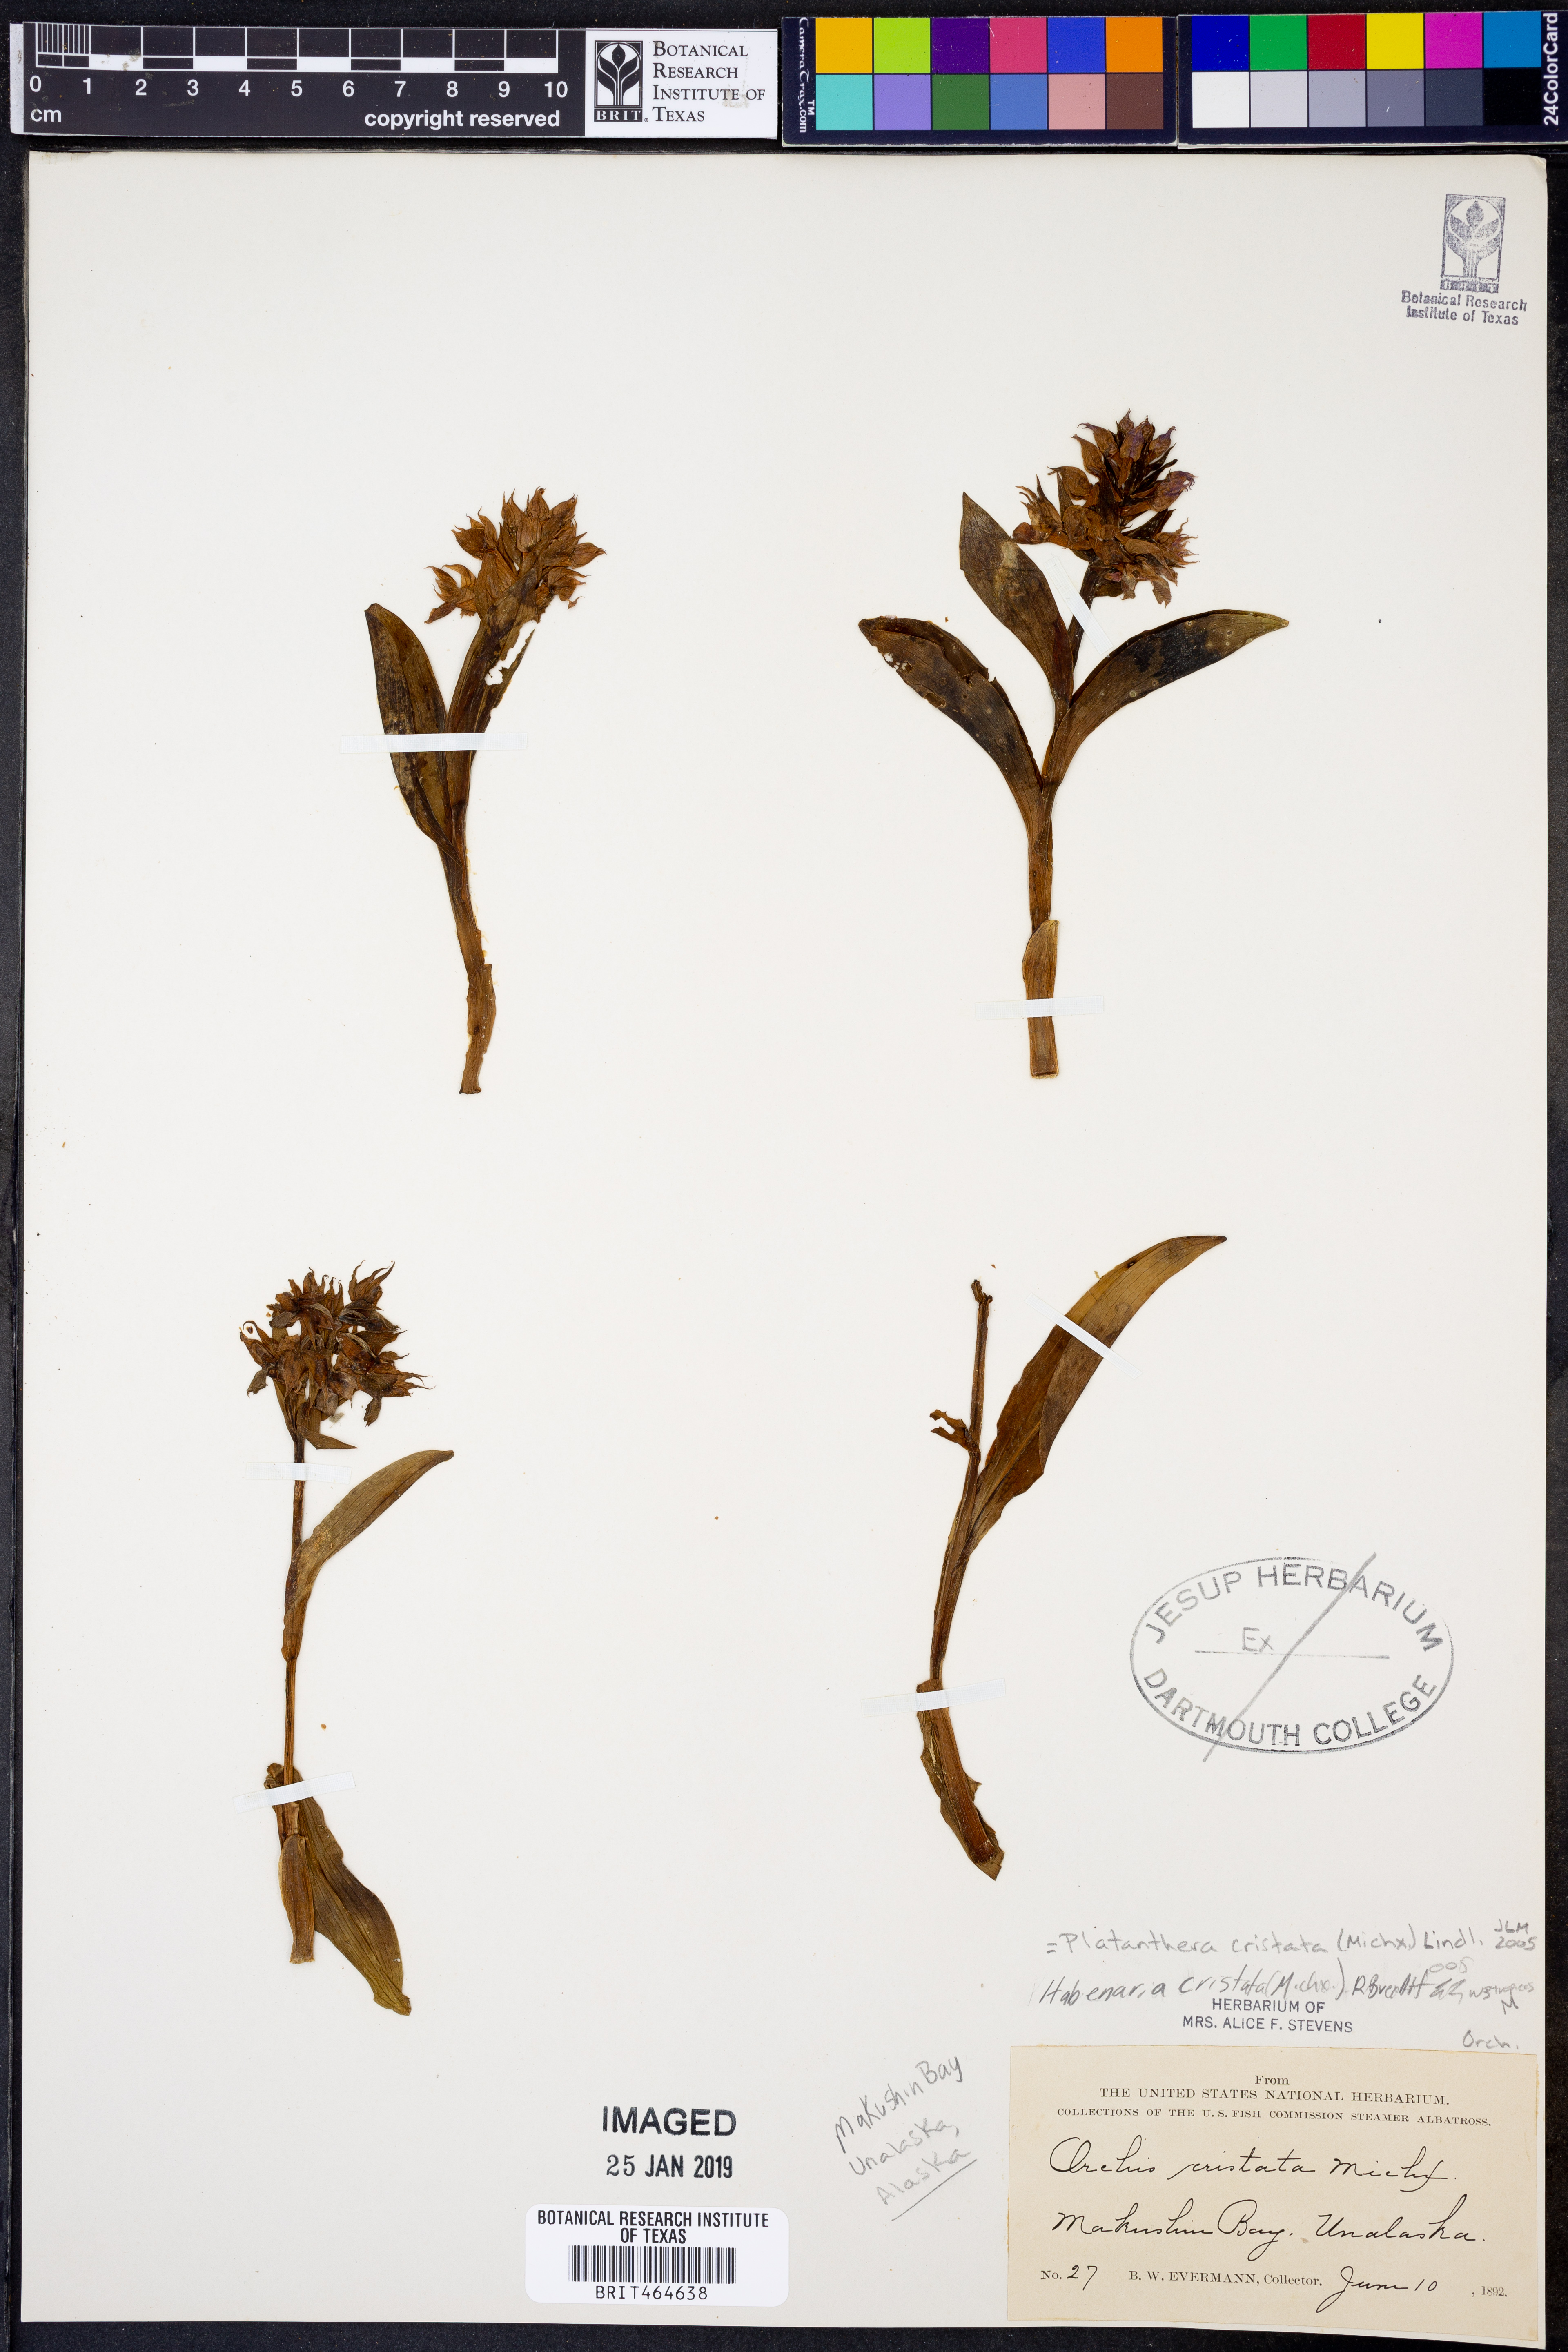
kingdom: Plantae
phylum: Tracheophyta
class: Liliopsida
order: Asparagales
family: Orchidaceae
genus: Platanthera
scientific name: Platanthera cristata
